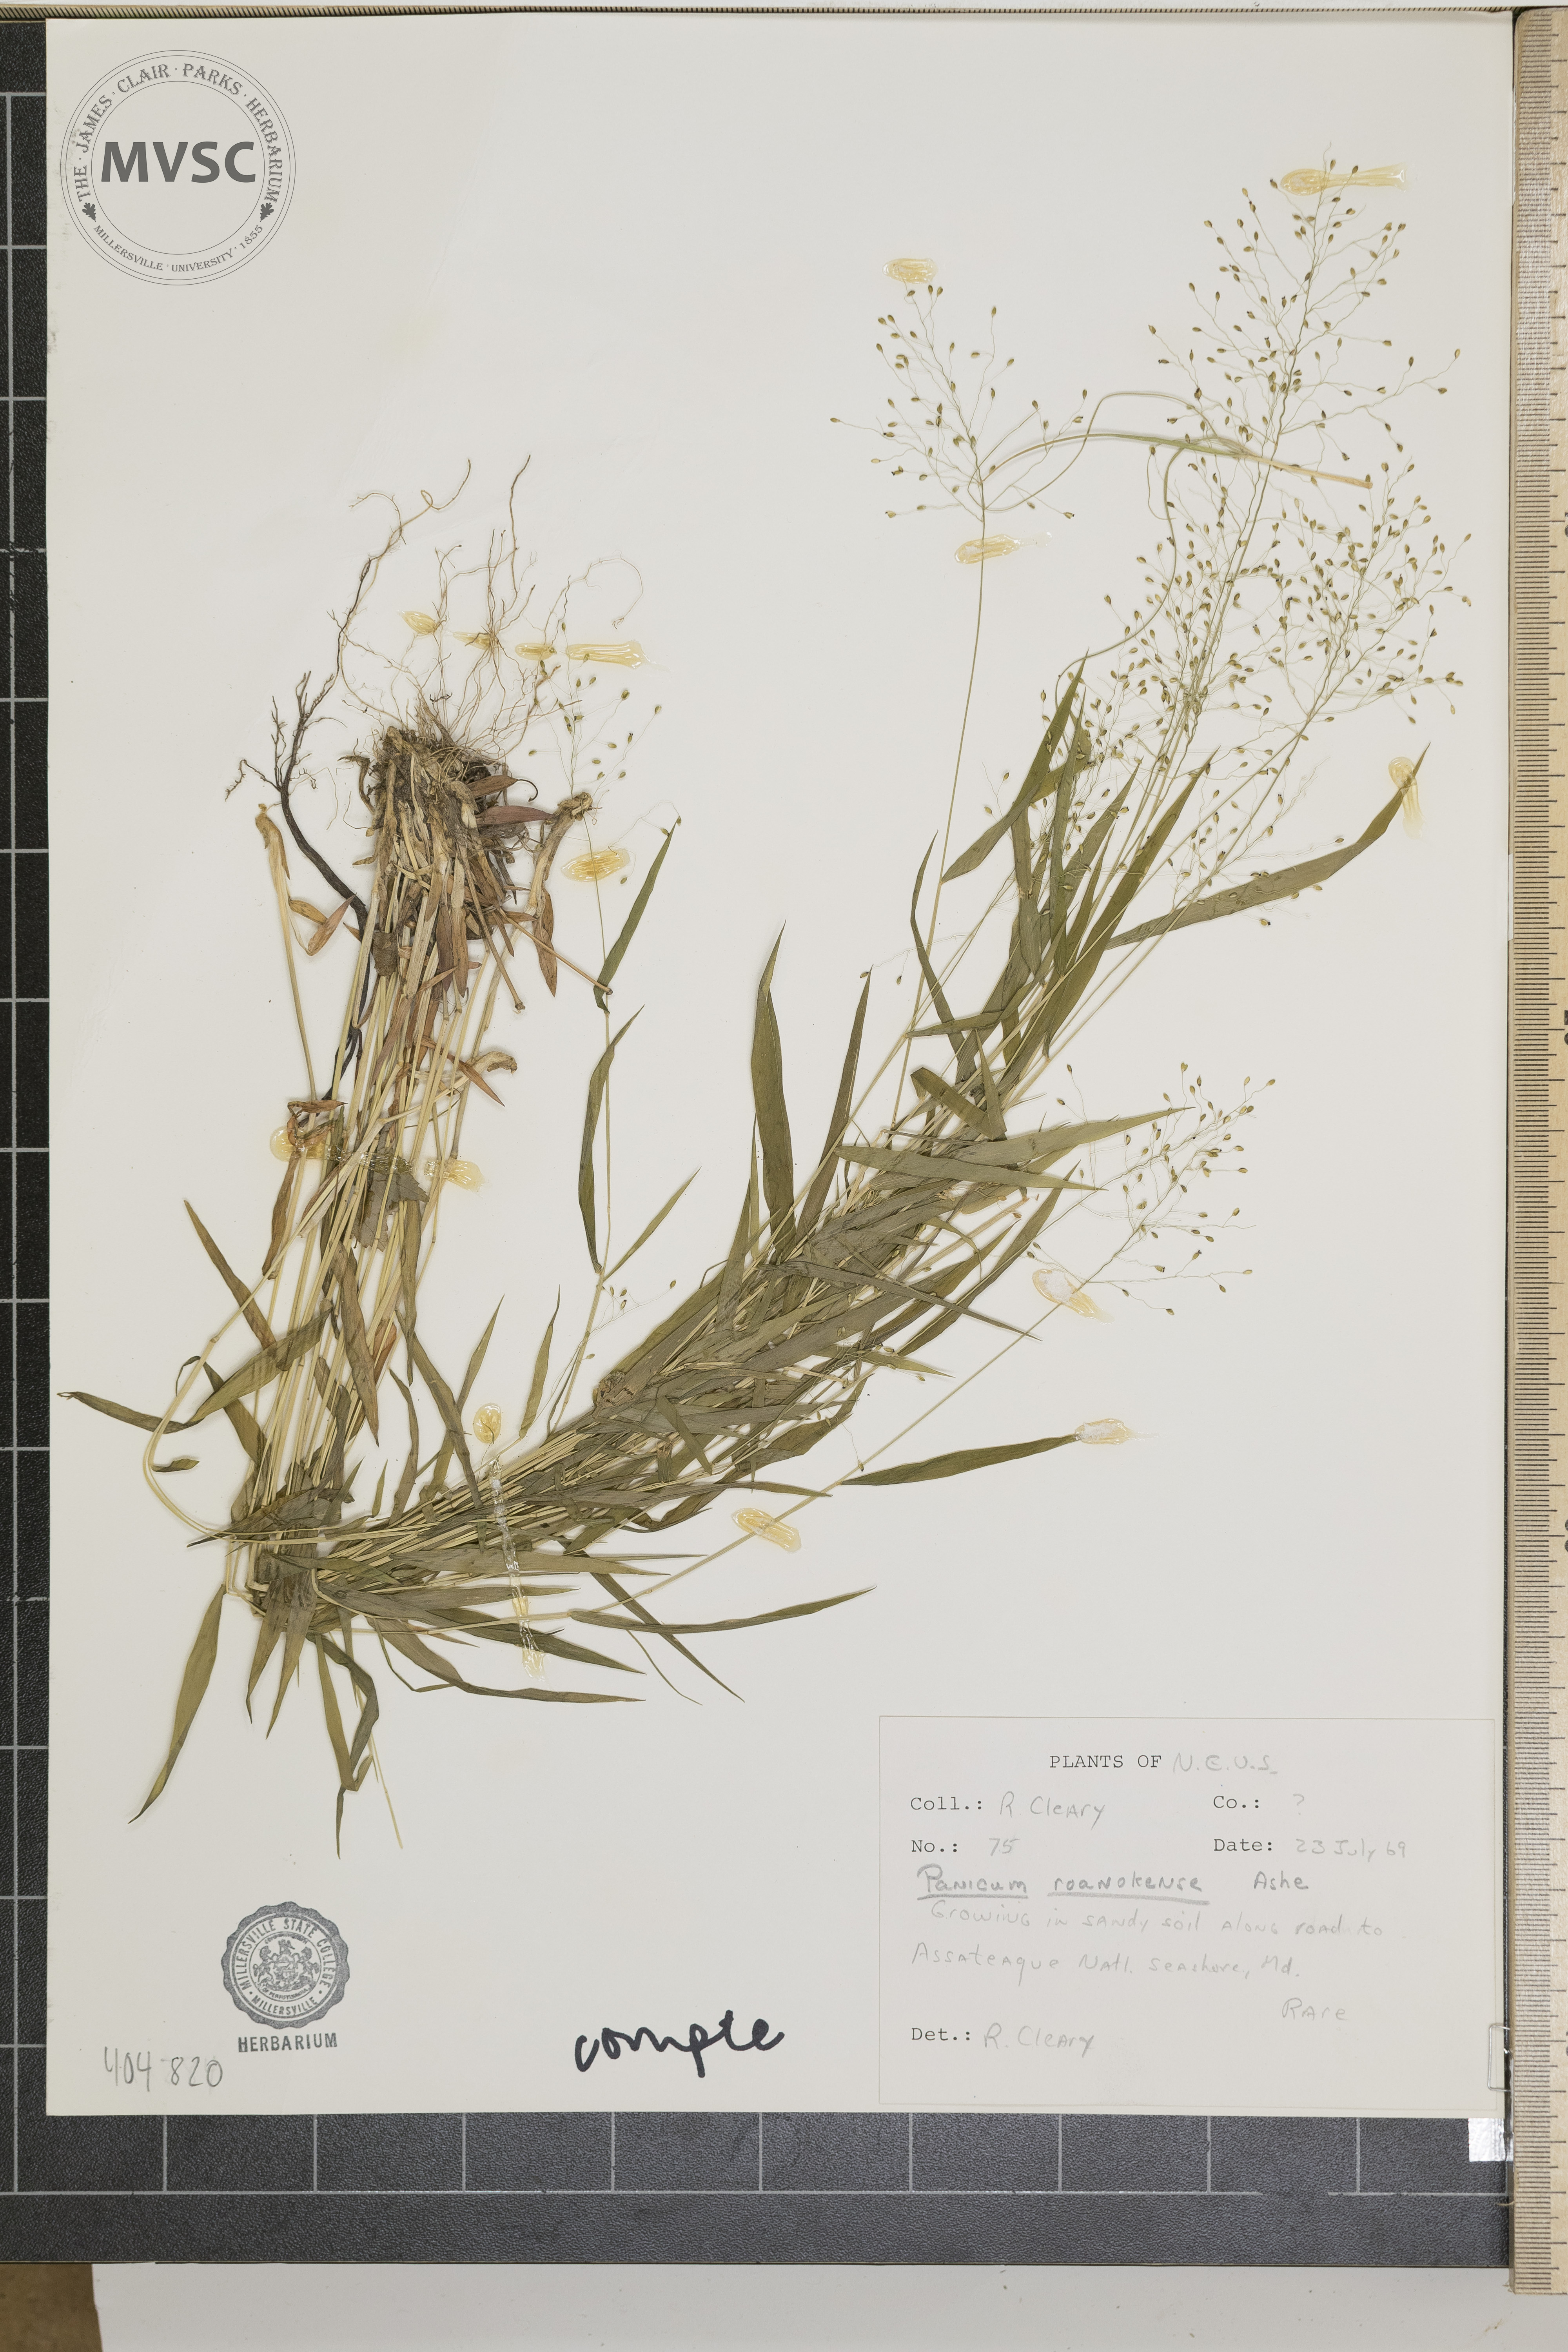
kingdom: Plantae
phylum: Tracheophyta
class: Liliopsida
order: Poales
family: Poaceae
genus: Dichanthelium
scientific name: Dichanthelium roanokense
